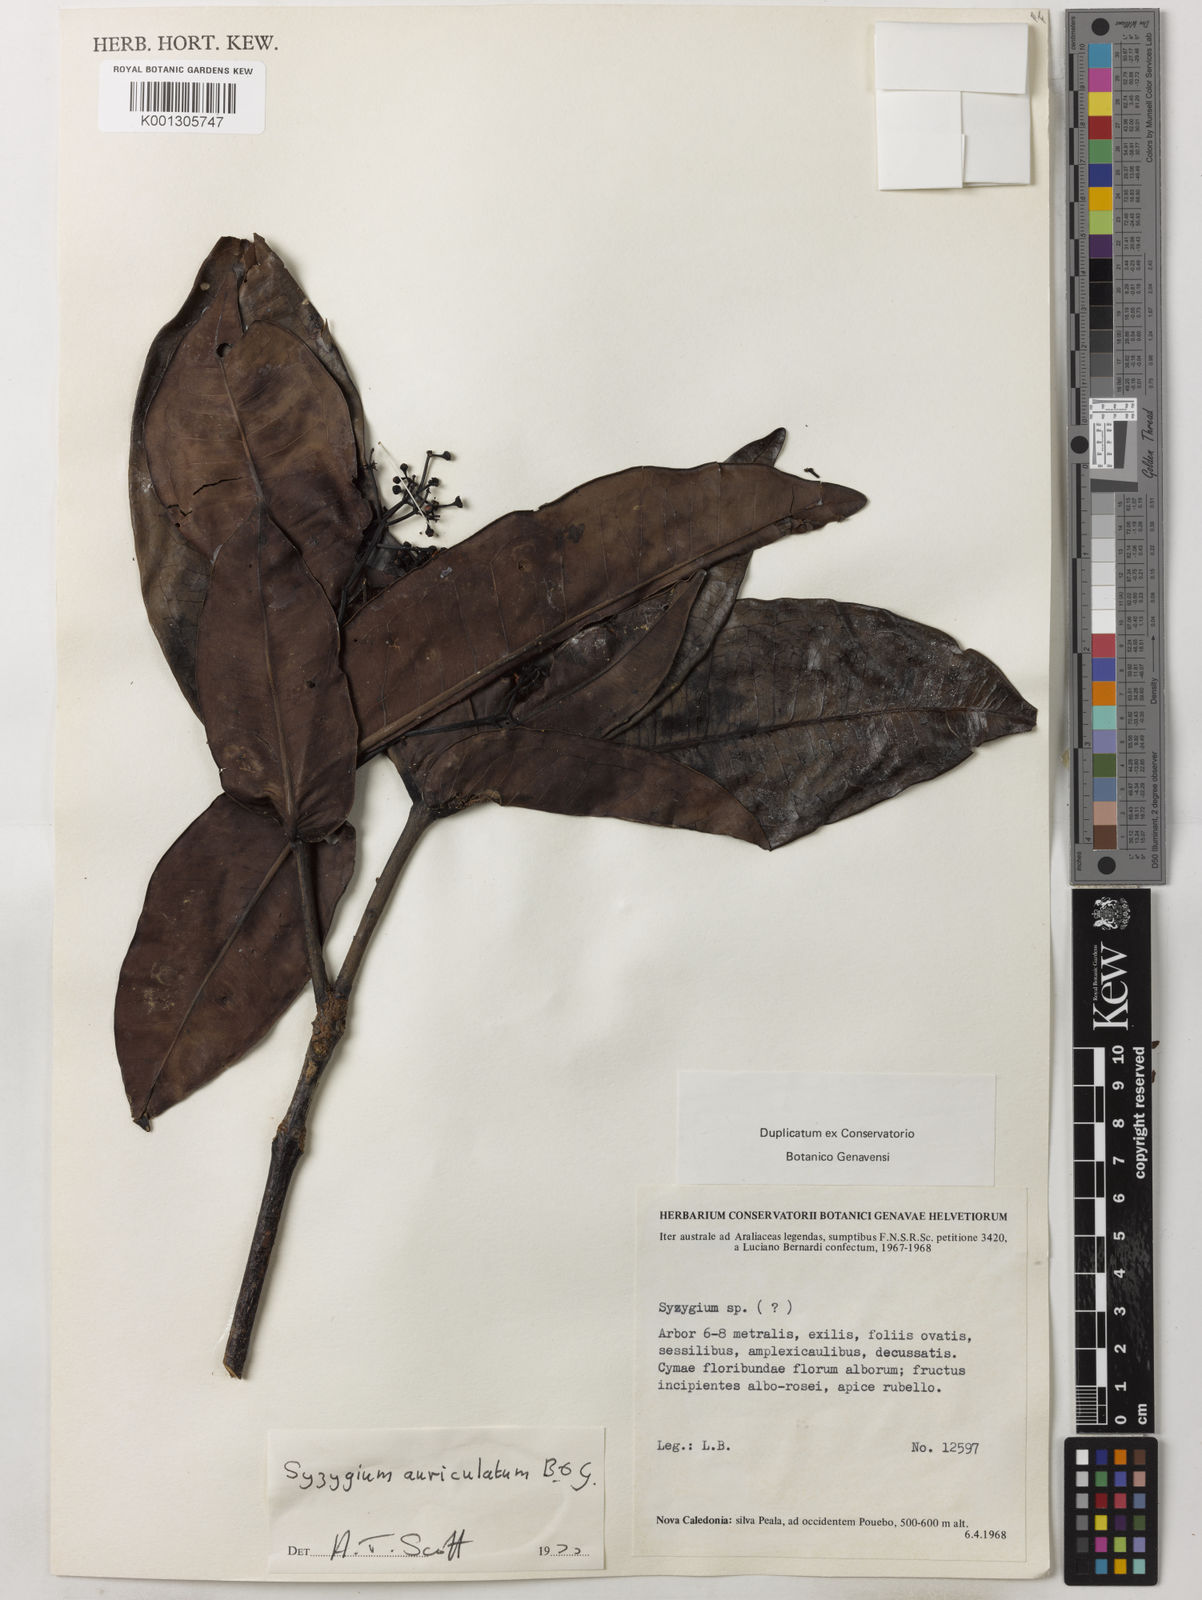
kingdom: Plantae
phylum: Tracheophyta
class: Magnoliopsida
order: Myrtales
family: Myrtaceae
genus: Syzygium
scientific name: Syzygium auriculatum
